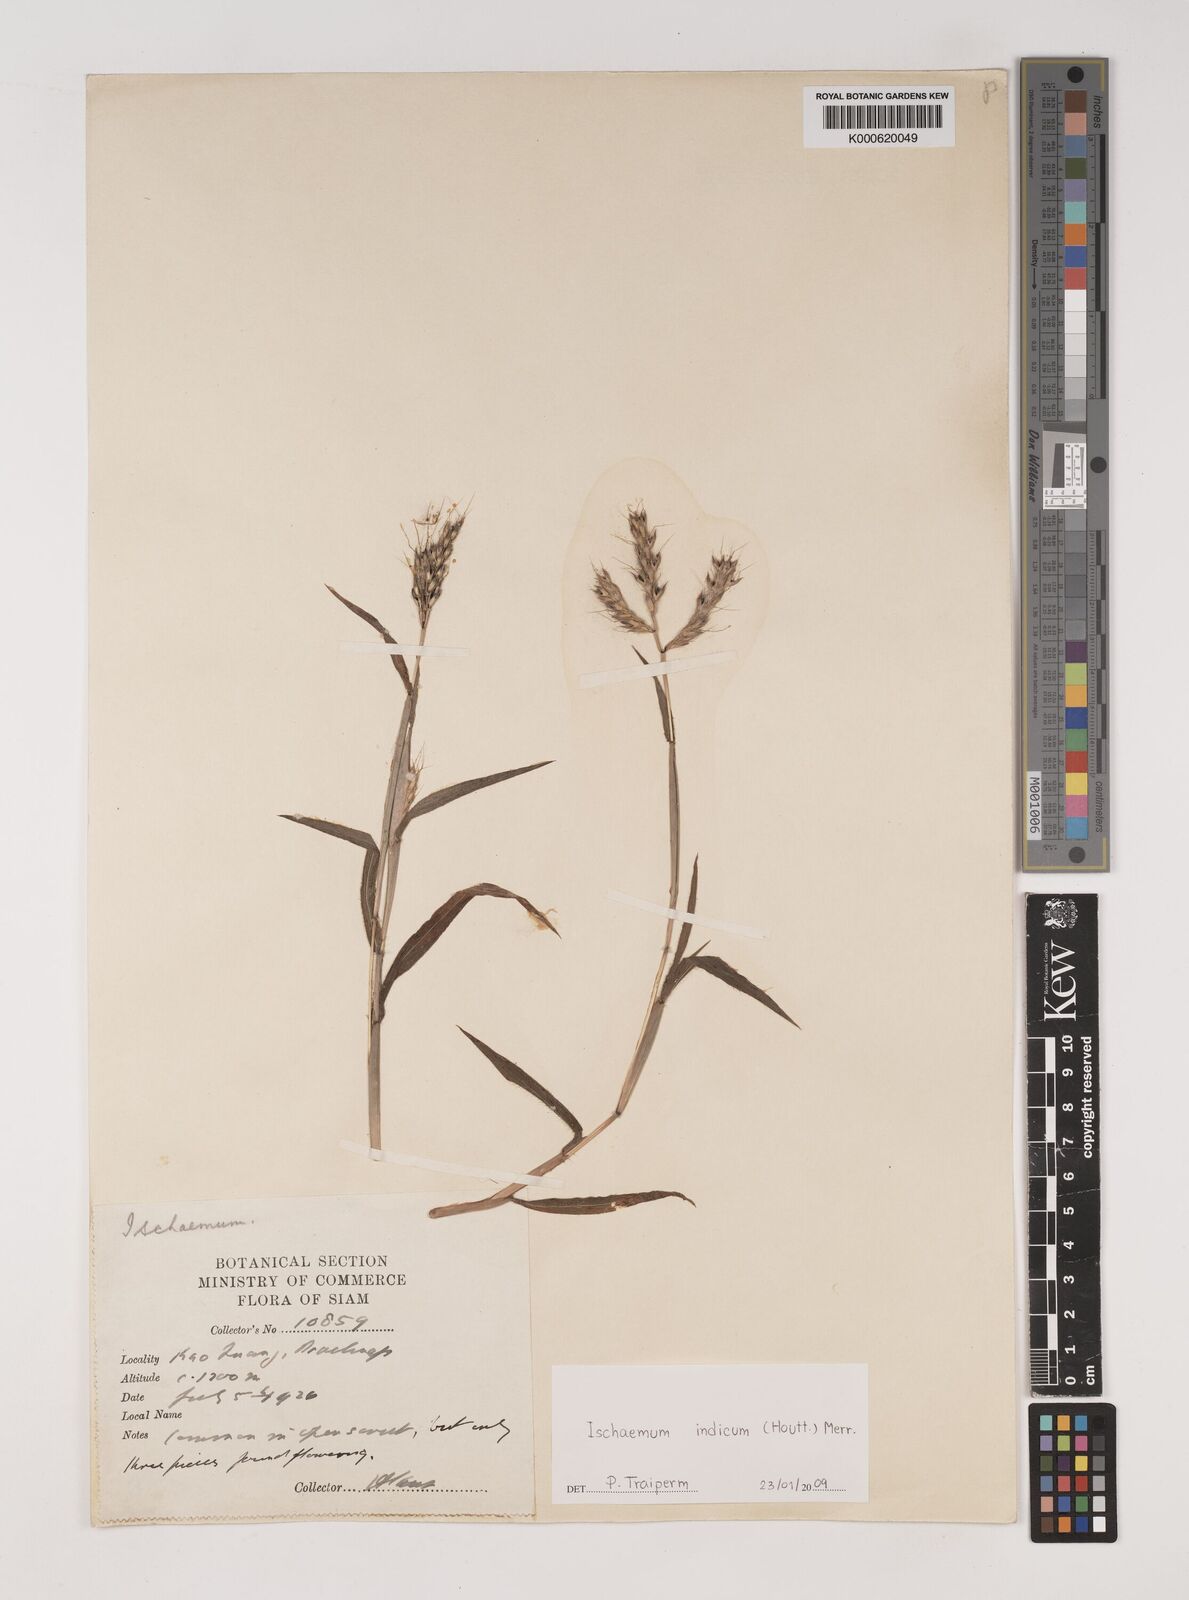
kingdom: Plantae
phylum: Tracheophyta
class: Liliopsida
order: Poales
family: Poaceae
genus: Polytrias
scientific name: Polytrias indica
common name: Indian murainagrass
